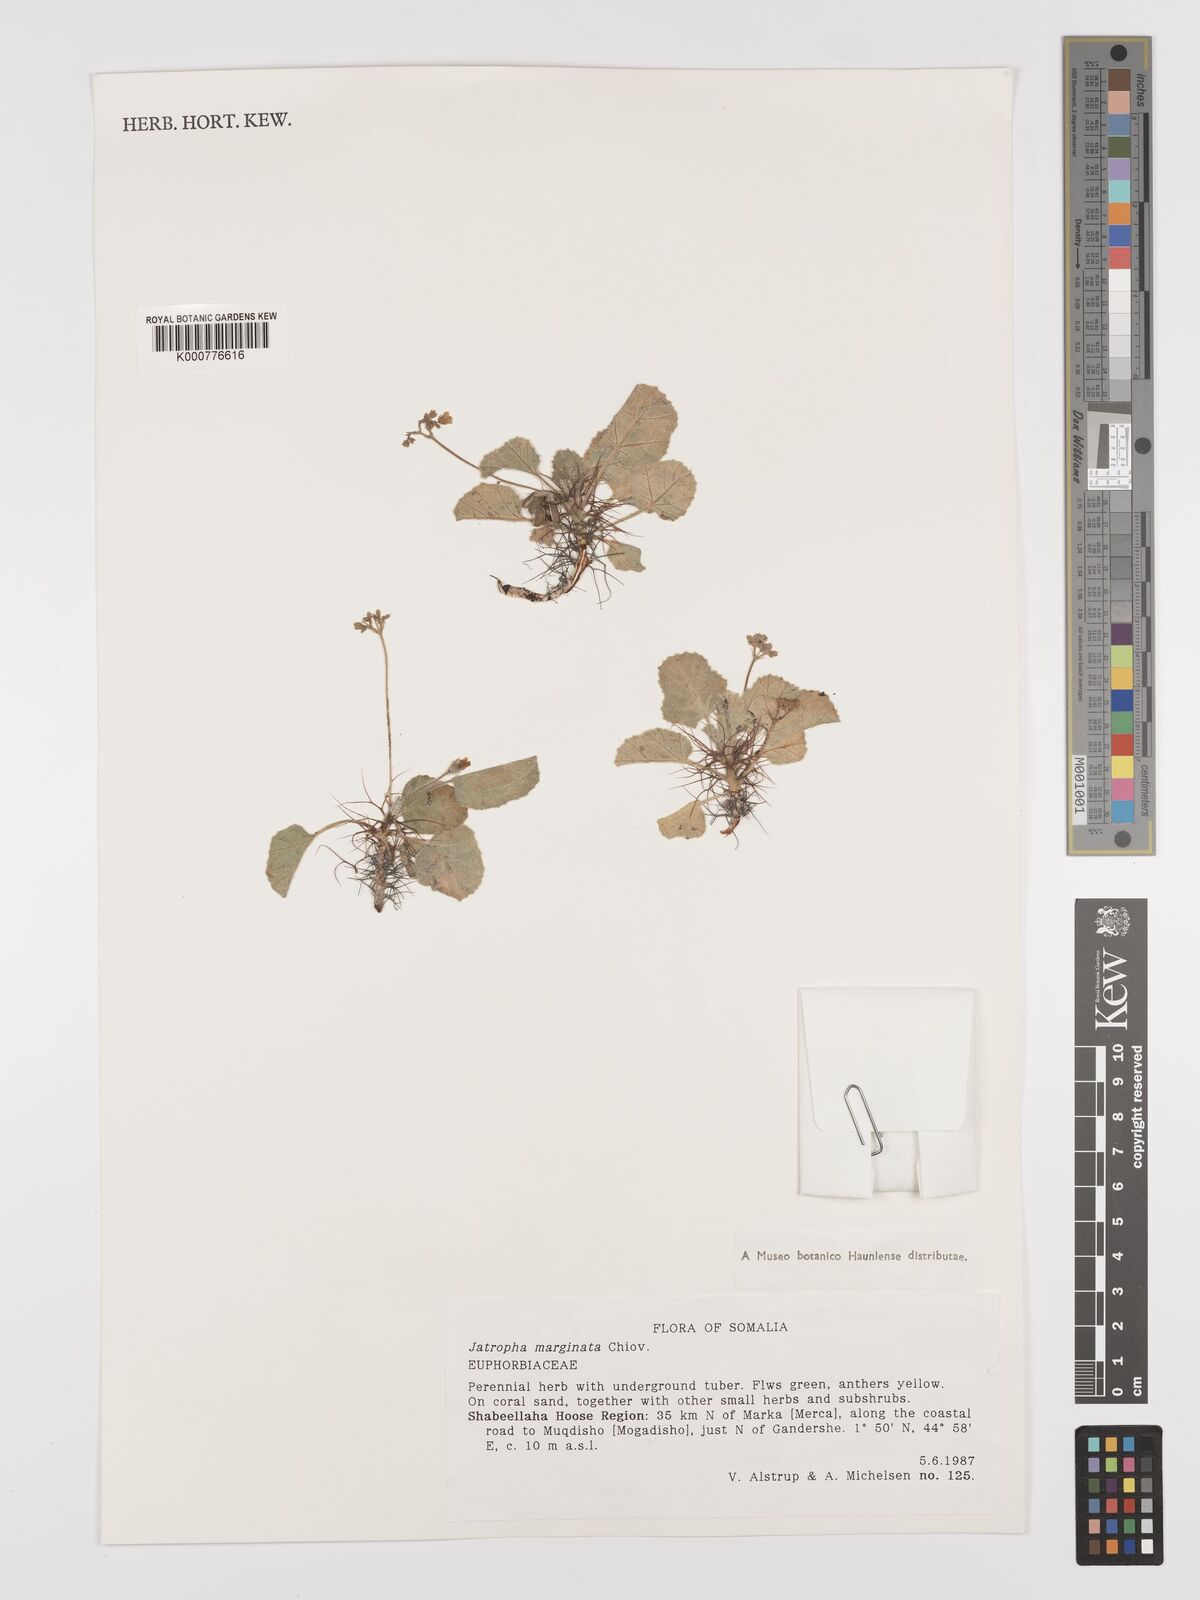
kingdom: Plantae
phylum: Tracheophyta
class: Magnoliopsida
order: Malpighiales
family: Euphorbiaceae
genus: Jatropha
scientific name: Jatropha
